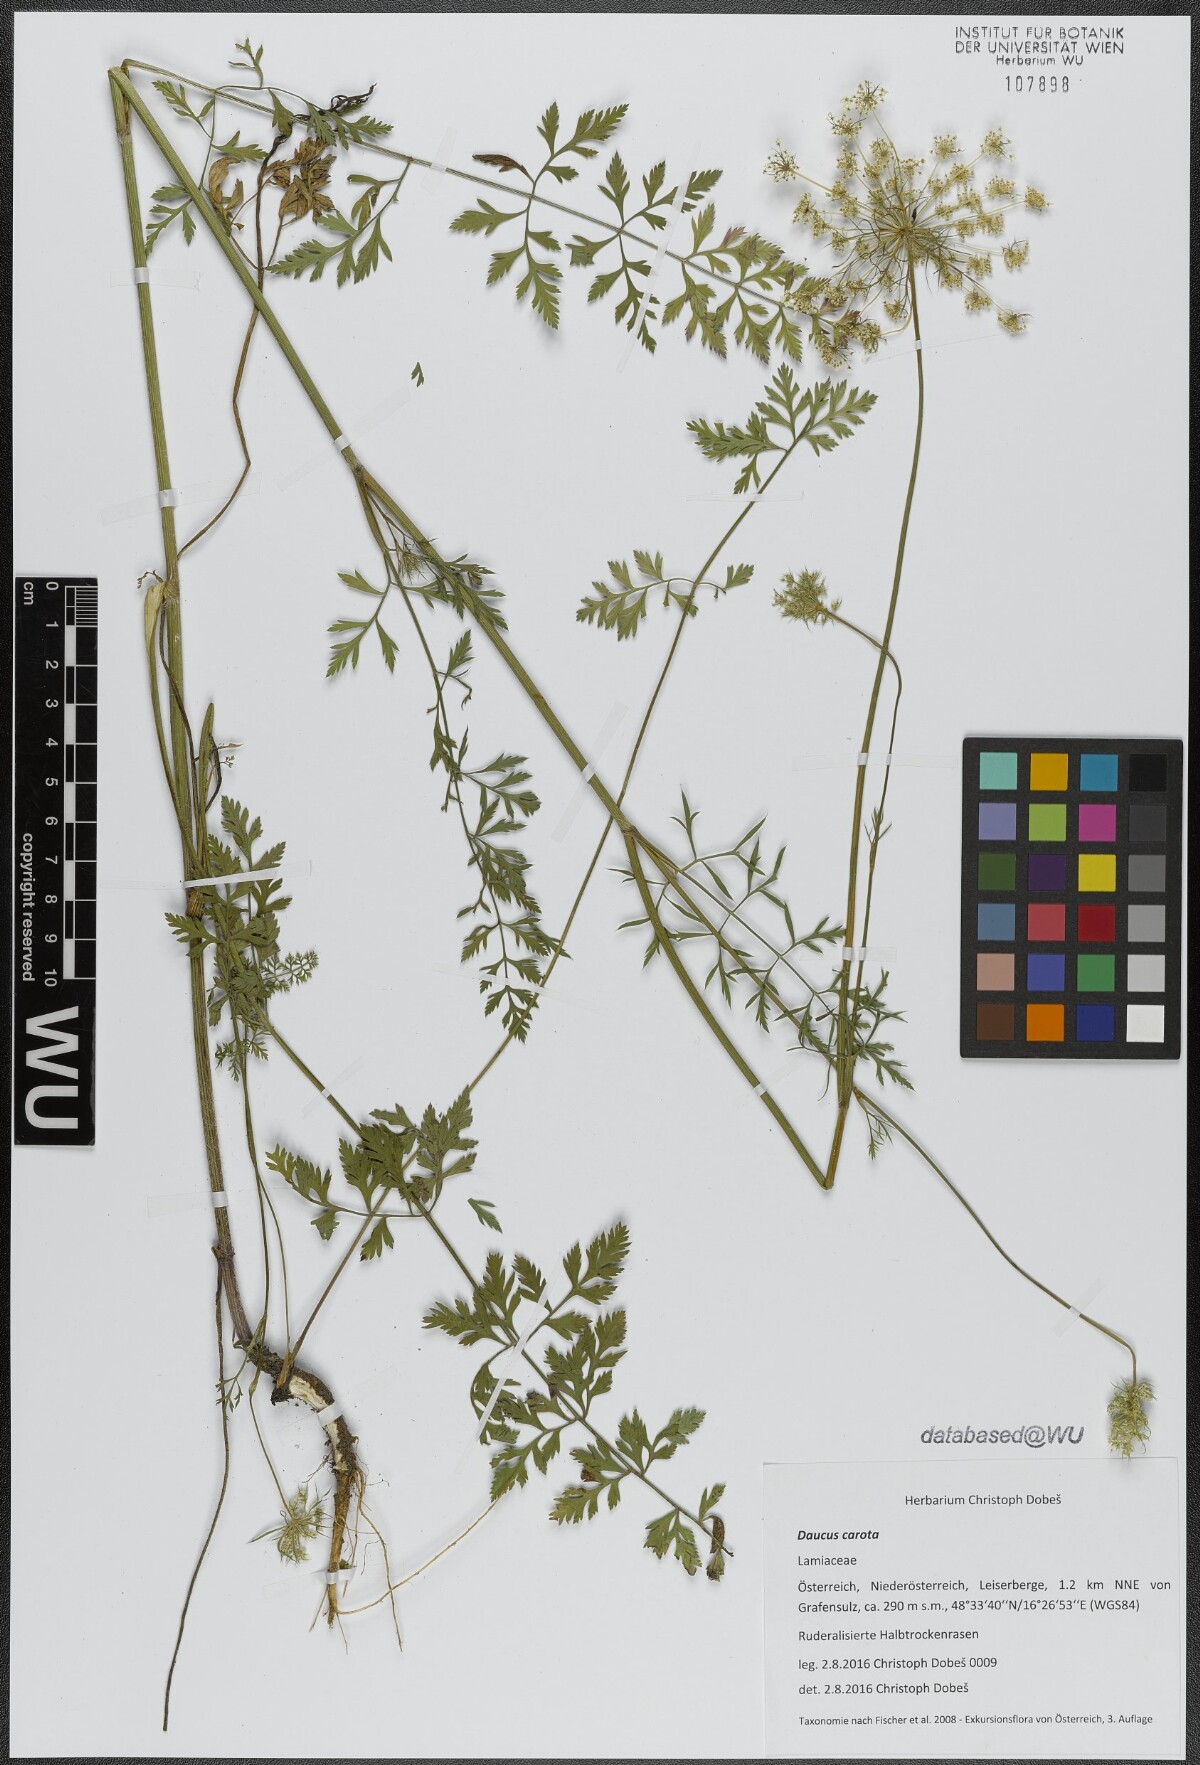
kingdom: Plantae
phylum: Tracheophyta
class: Magnoliopsida
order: Apiales
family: Apiaceae
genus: Daucus
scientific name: Daucus carota
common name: Wild carrot
